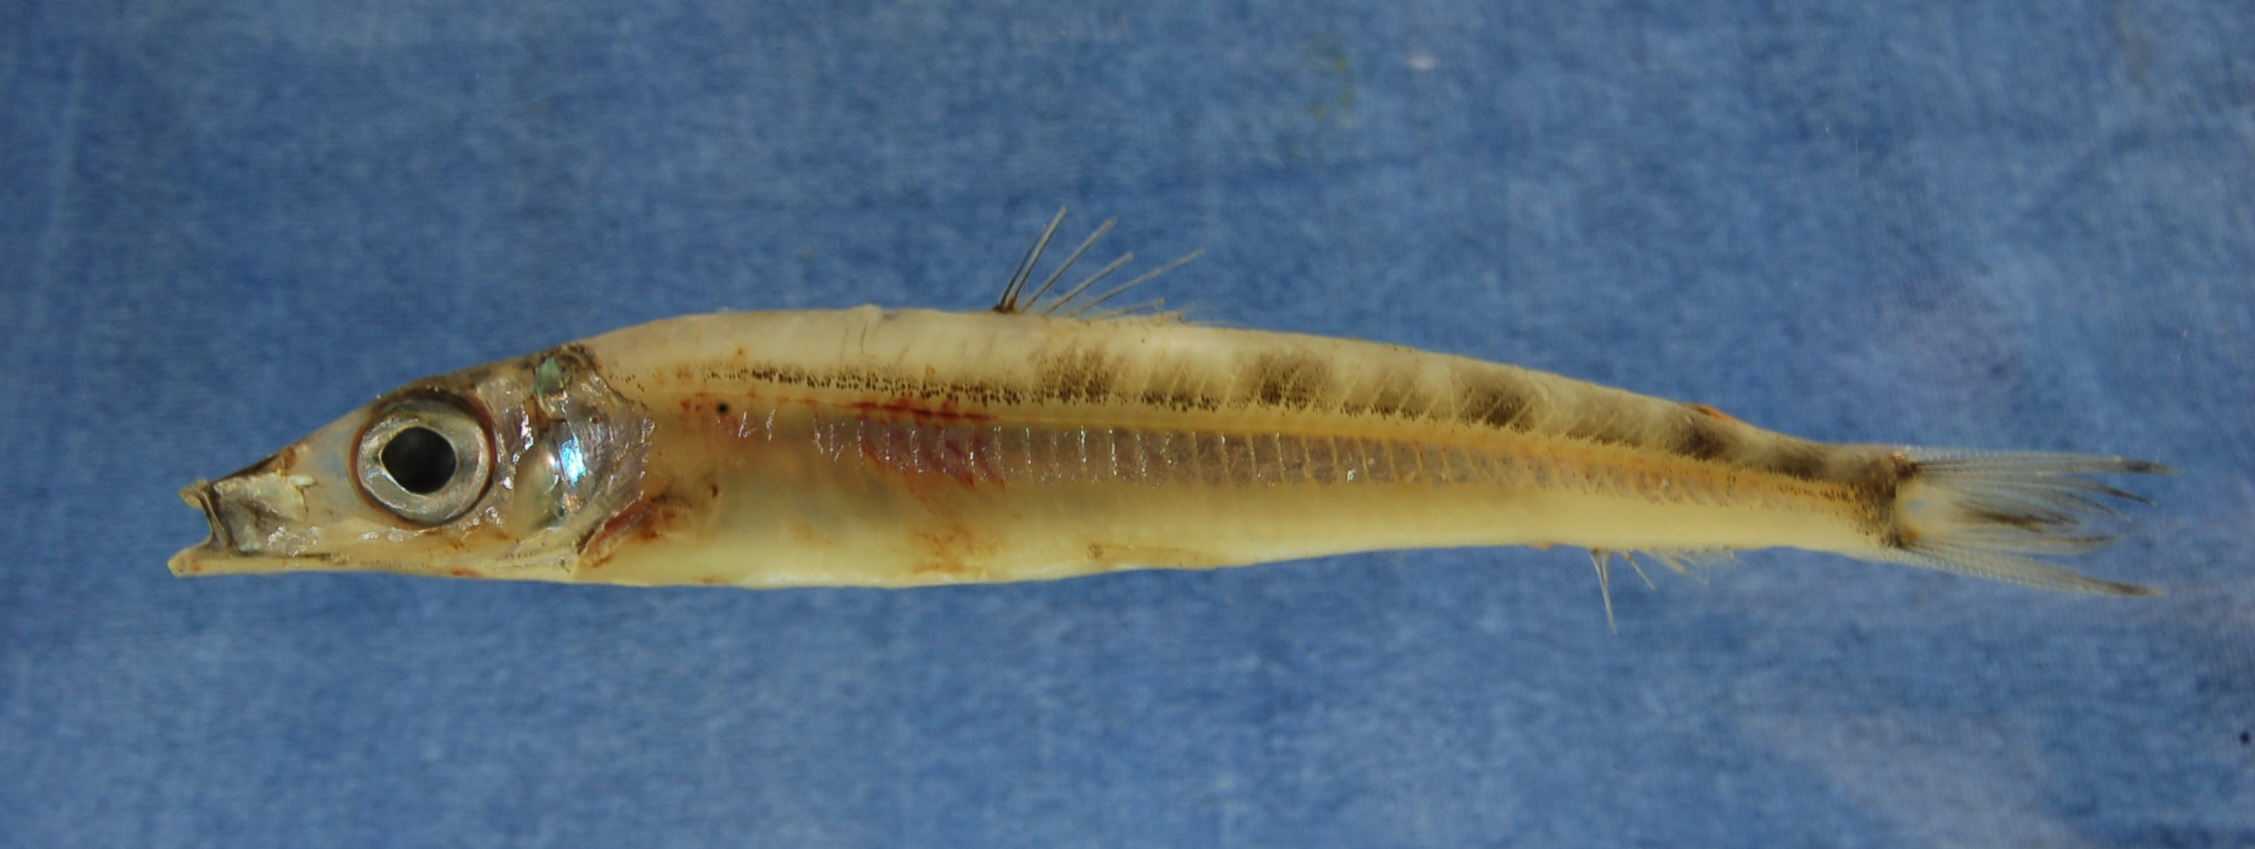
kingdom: Animalia
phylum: Chordata
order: Osmeriformes
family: Argentinidae
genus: Glossanodon
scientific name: Glossanodon
